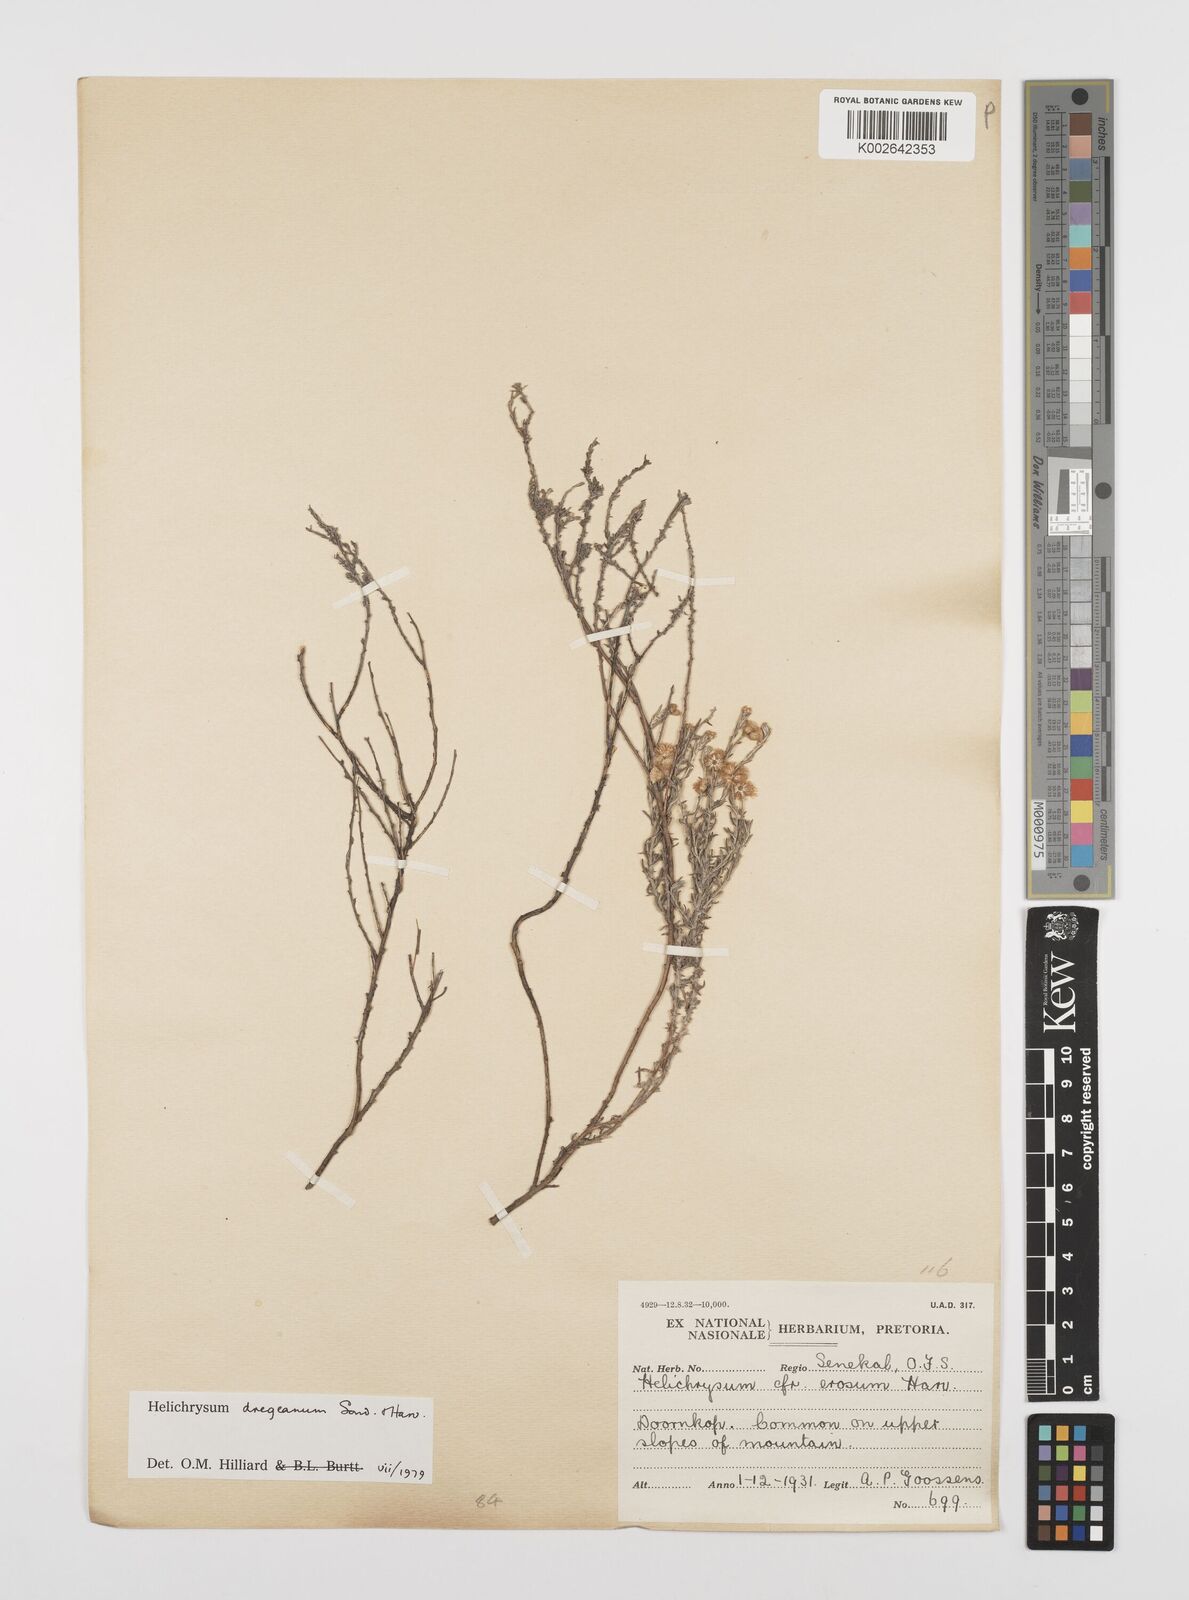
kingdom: Plantae
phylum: Tracheophyta
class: Magnoliopsida
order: Asterales
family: Asteraceae
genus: Helichrysum
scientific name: Helichrysum dregeanum
